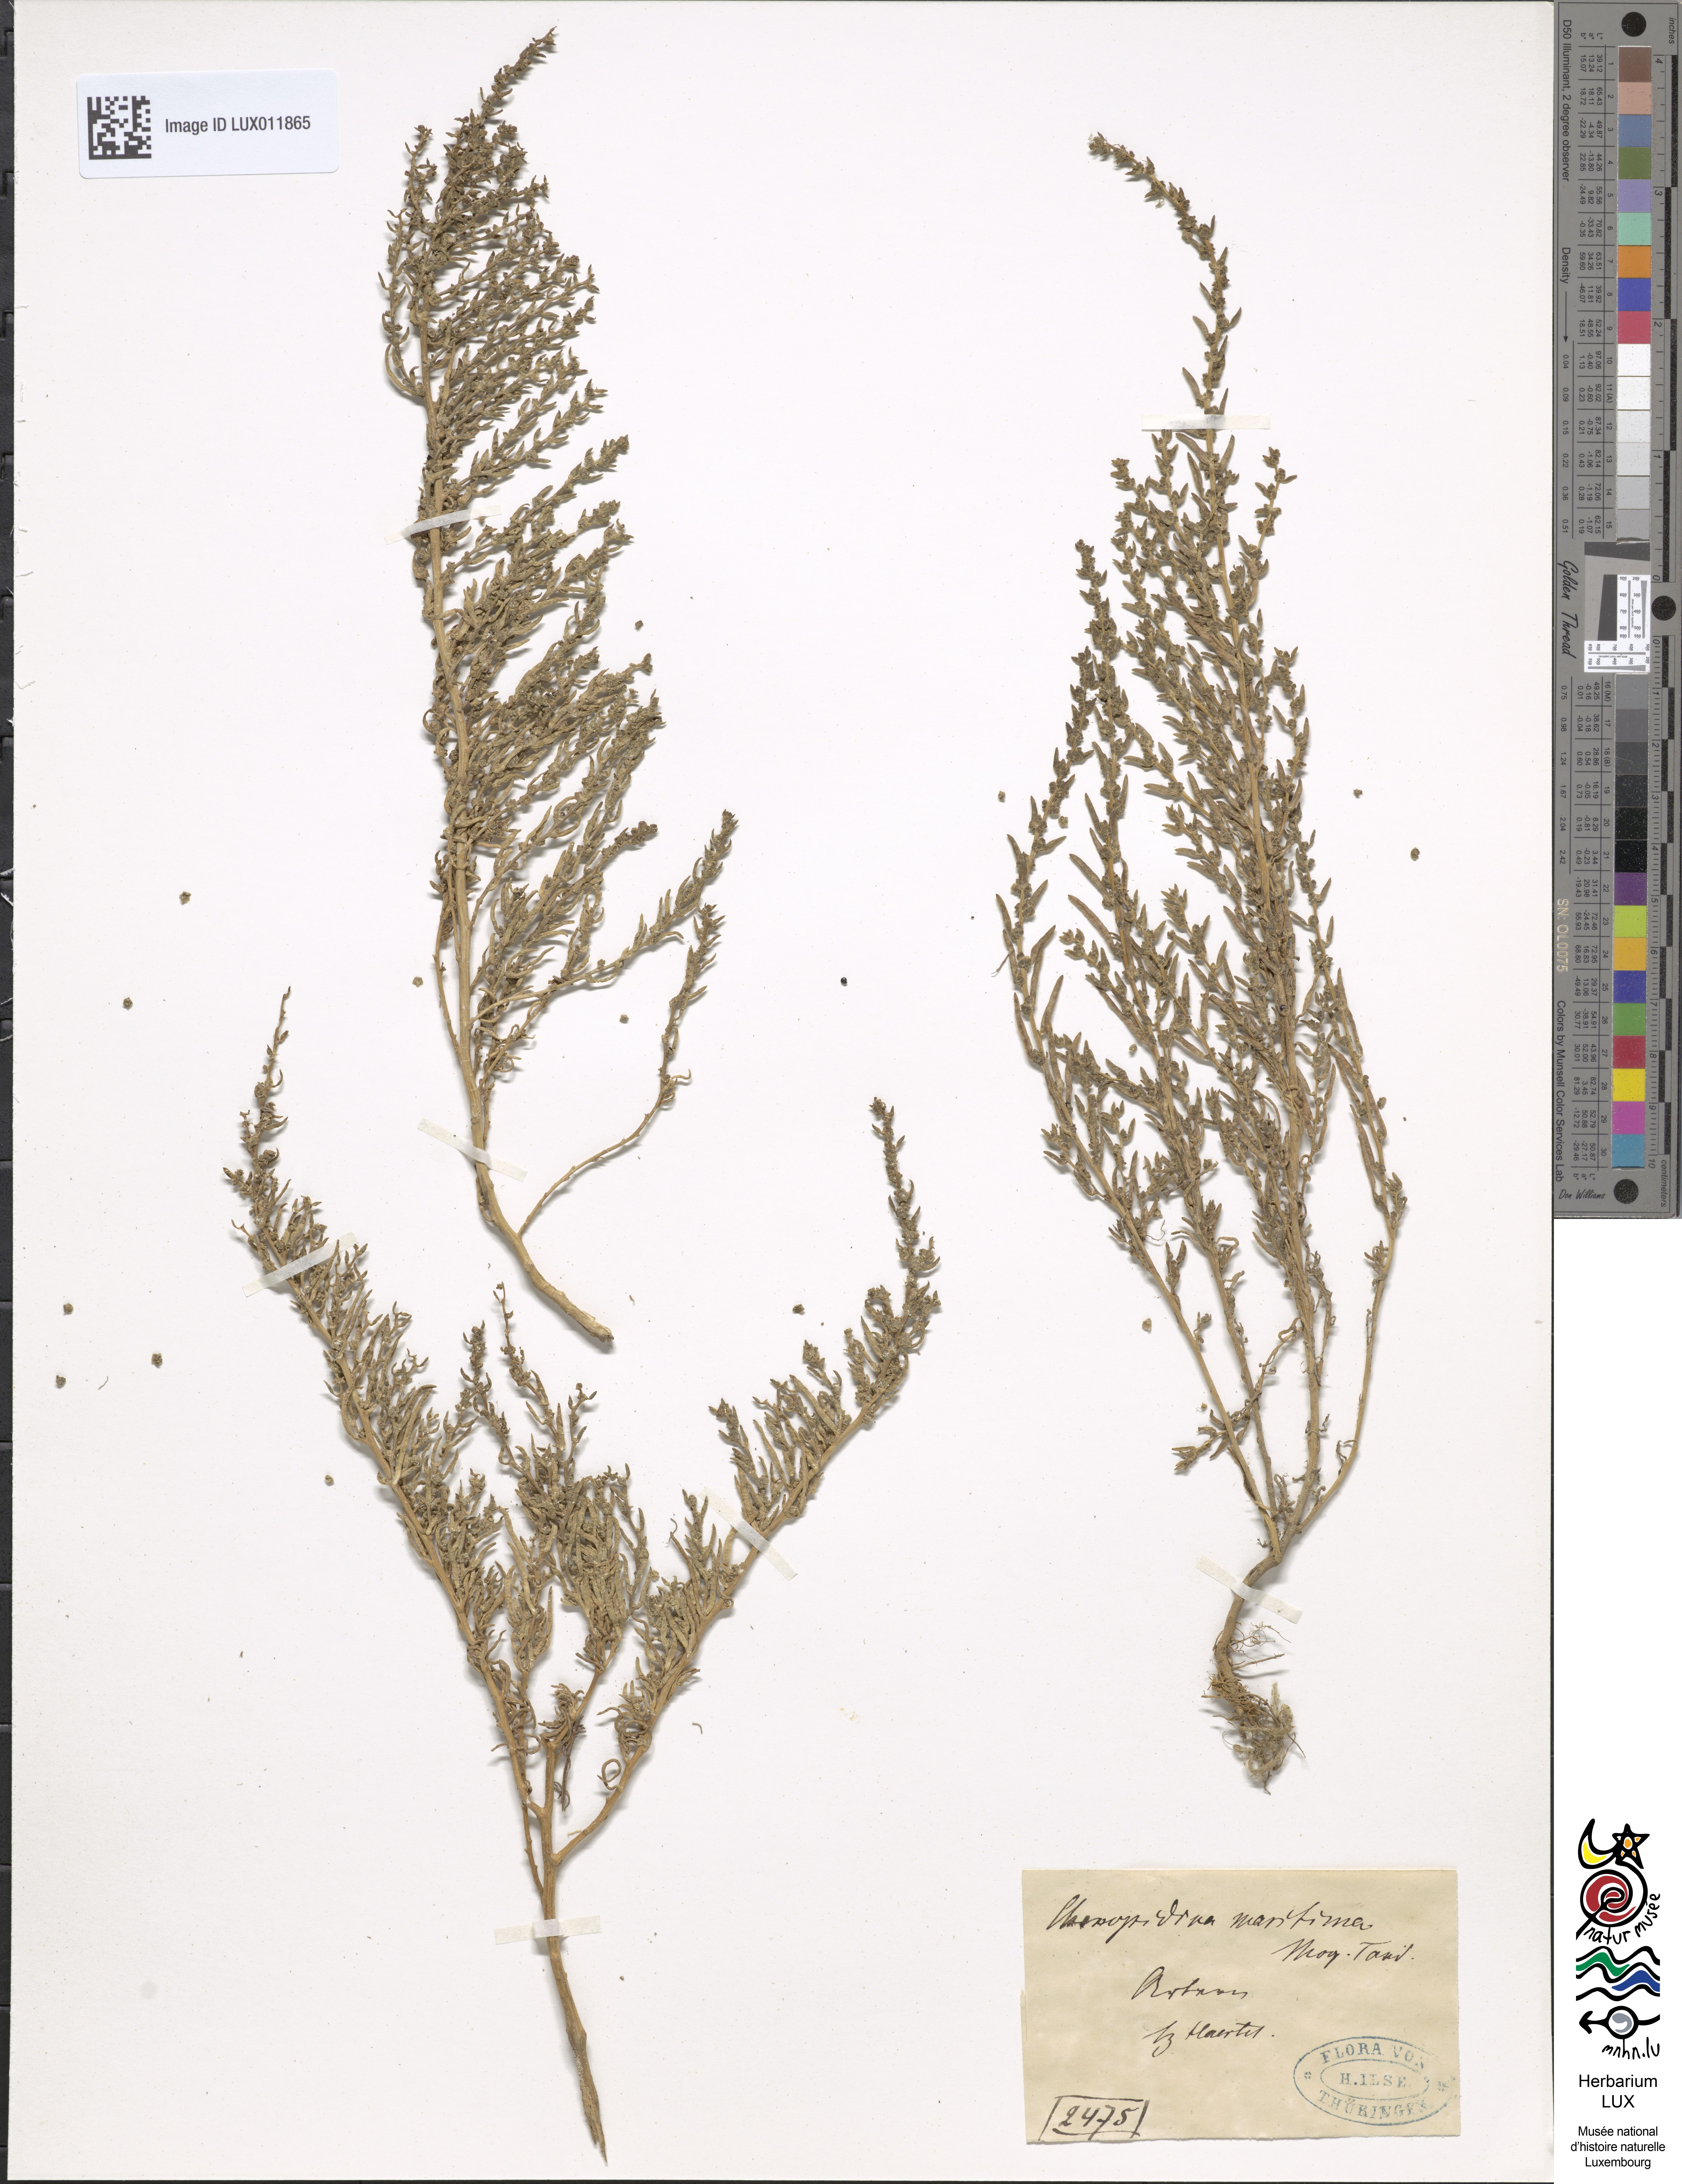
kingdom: Plantae
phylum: Tracheophyta
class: Magnoliopsida
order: Caryophyllales
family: Amaranthaceae
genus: Suaeda
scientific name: Suaeda maritima
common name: Annual sea-blite
